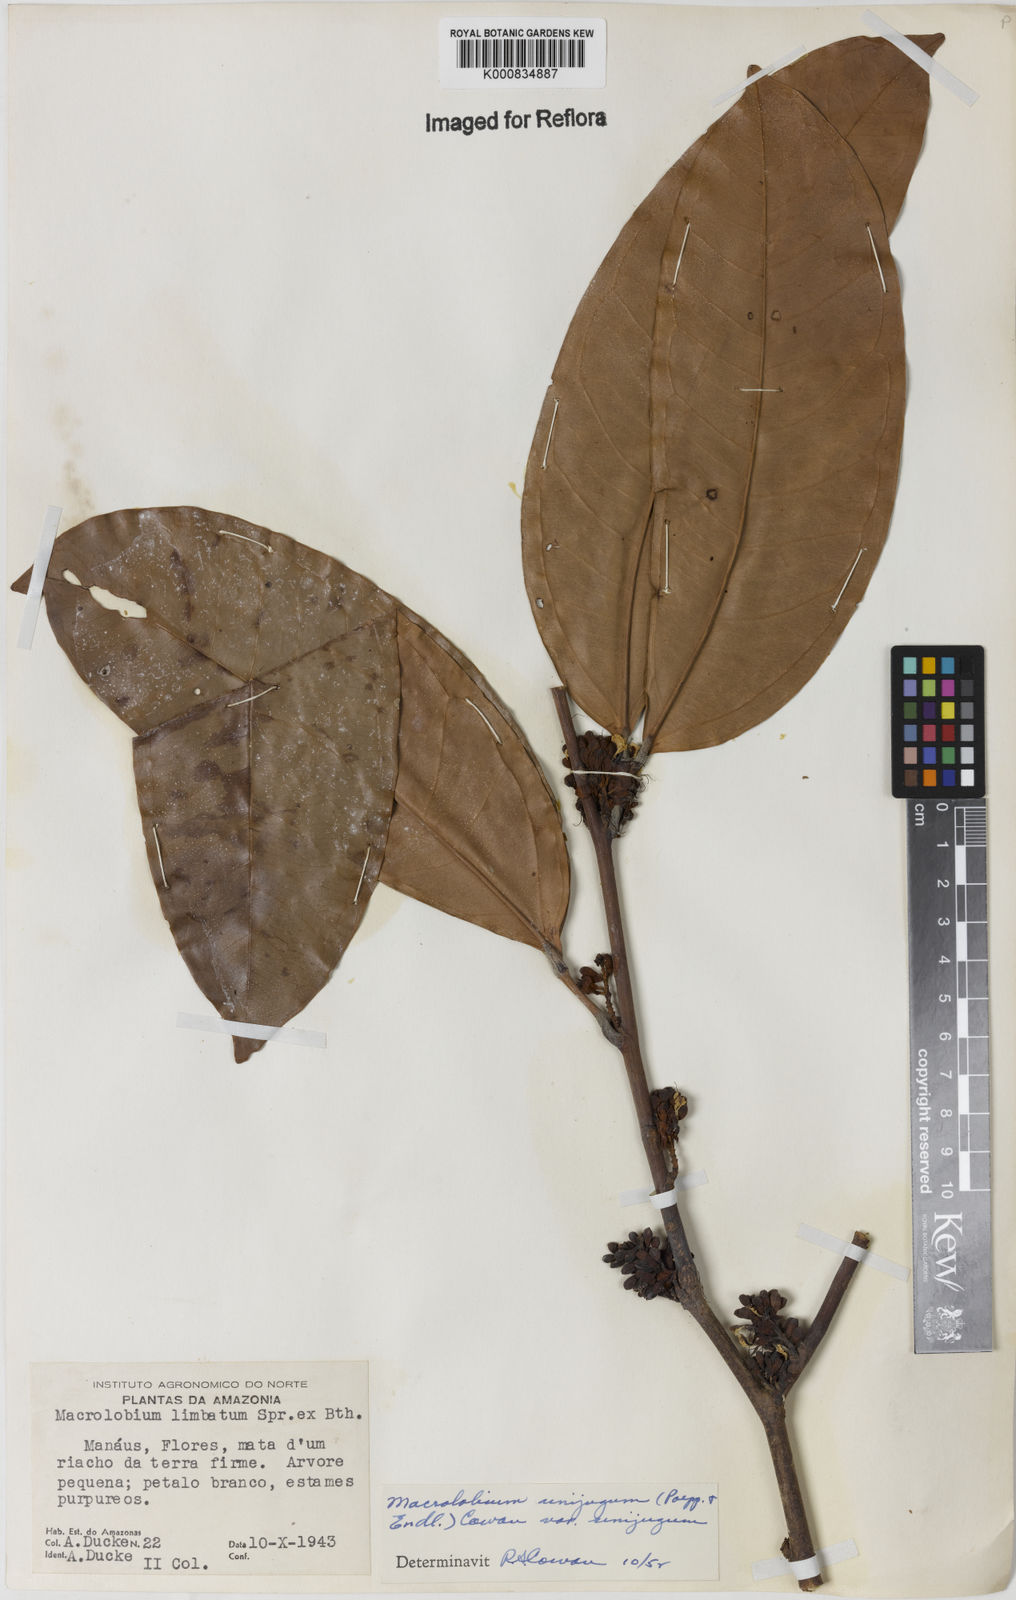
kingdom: Plantae
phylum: Tracheophyta
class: Magnoliopsida
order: Fabales
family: Fabaceae
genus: Macrolobium
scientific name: Macrolobium limbatum
